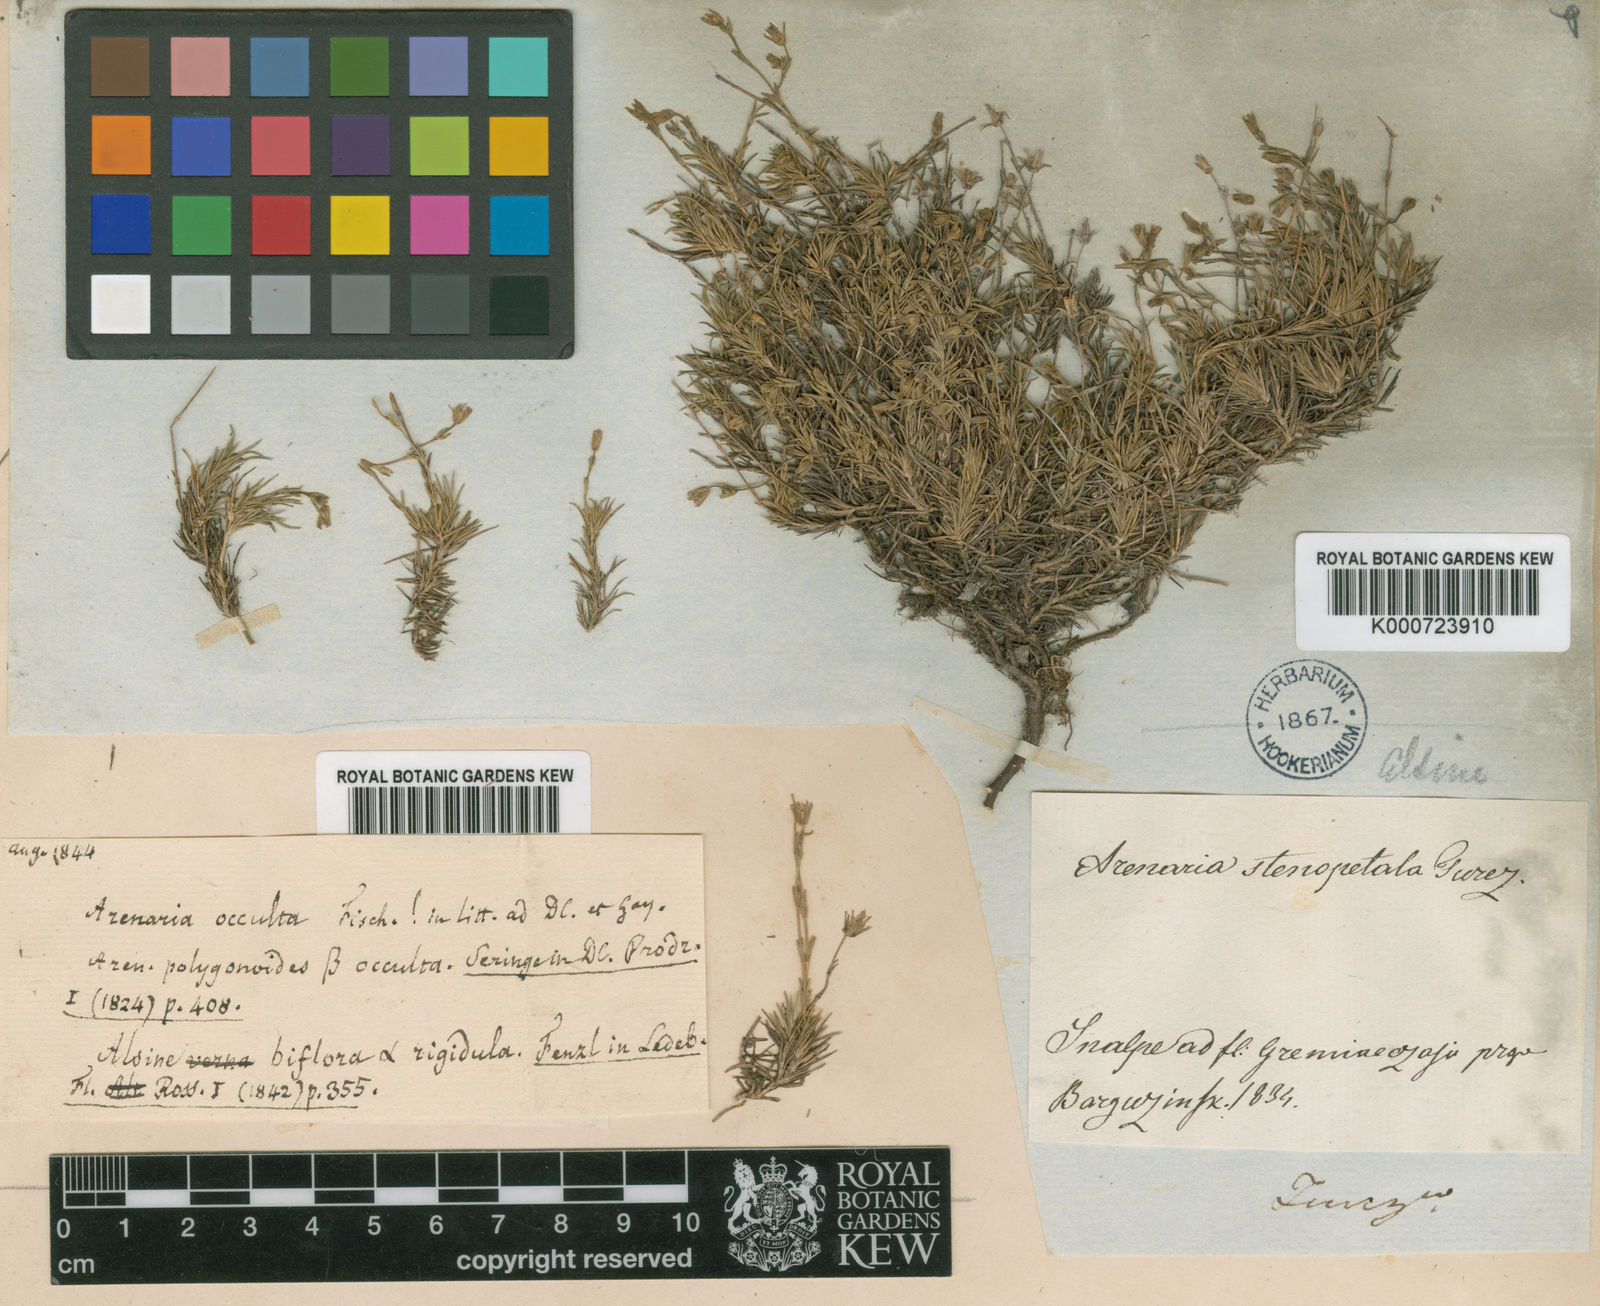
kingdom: Plantae
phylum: Tracheophyta
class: Magnoliopsida
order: Caryophyllales
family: Caryophyllaceae
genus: Arenaria
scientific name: Arenaria biflora
